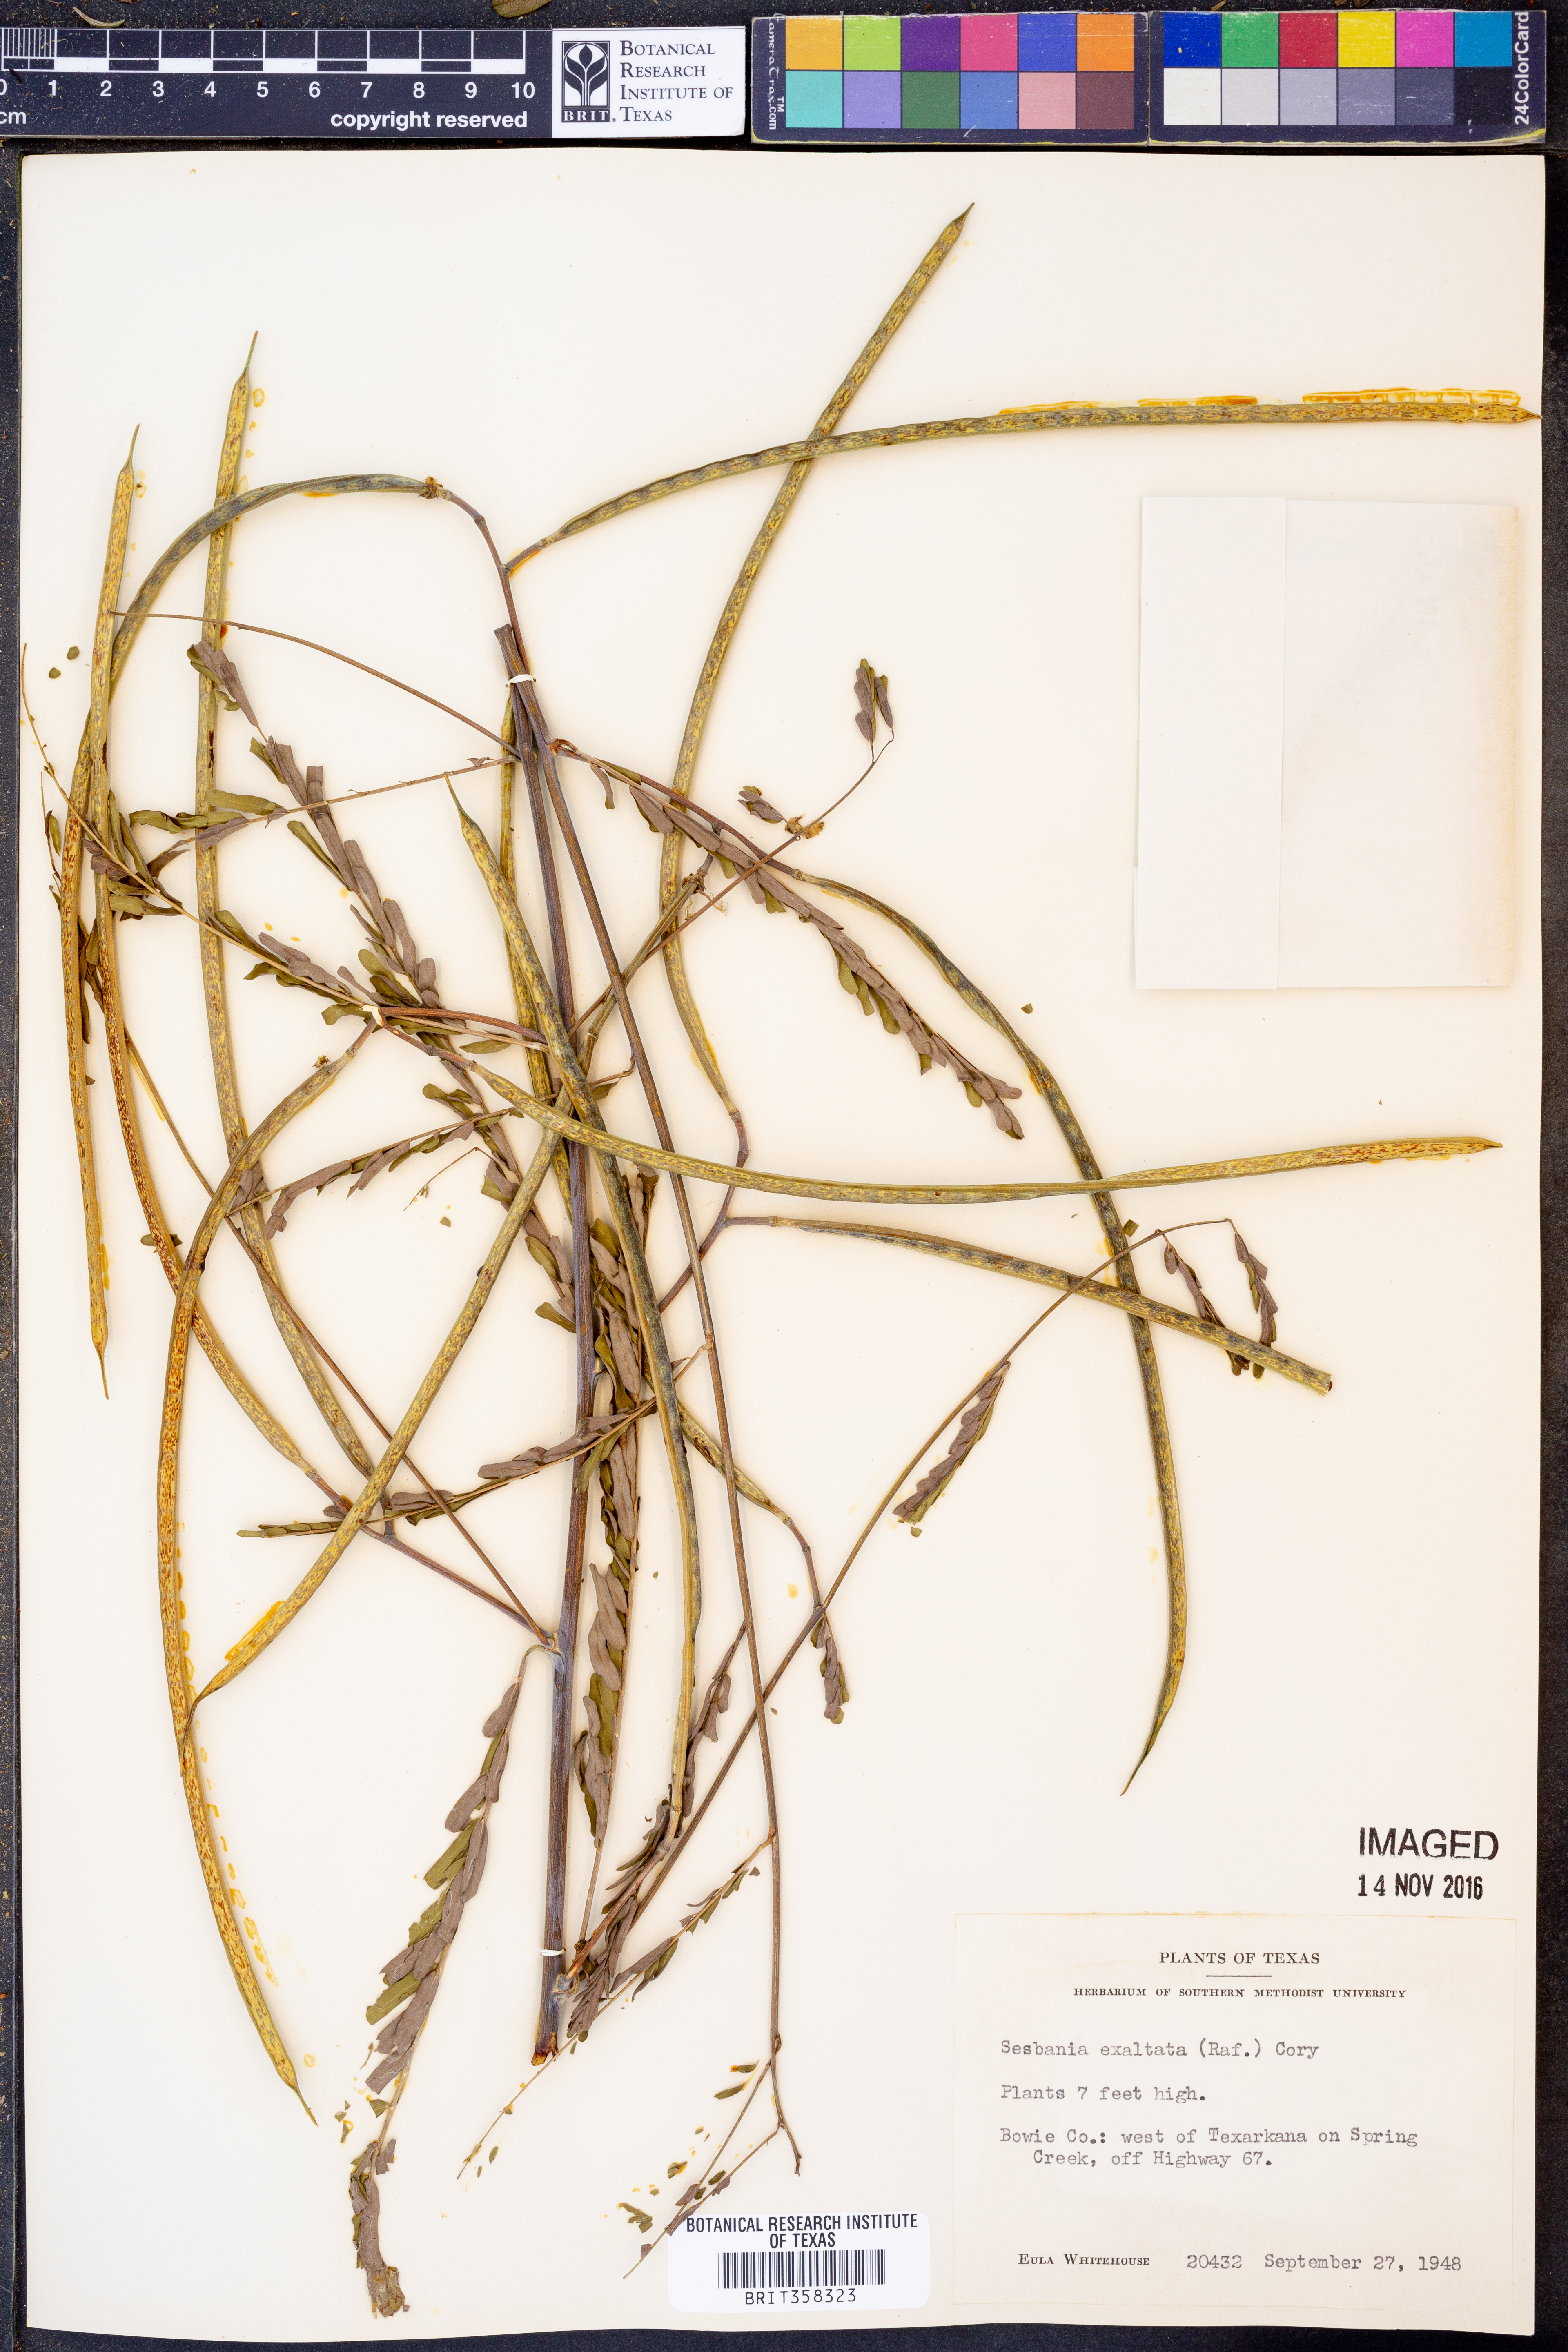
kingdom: Plantae
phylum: Tracheophyta
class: Magnoliopsida
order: Fabales
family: Fabaceae
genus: Sesbania
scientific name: Sesbania herbacea
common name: Bigpod sesbania
